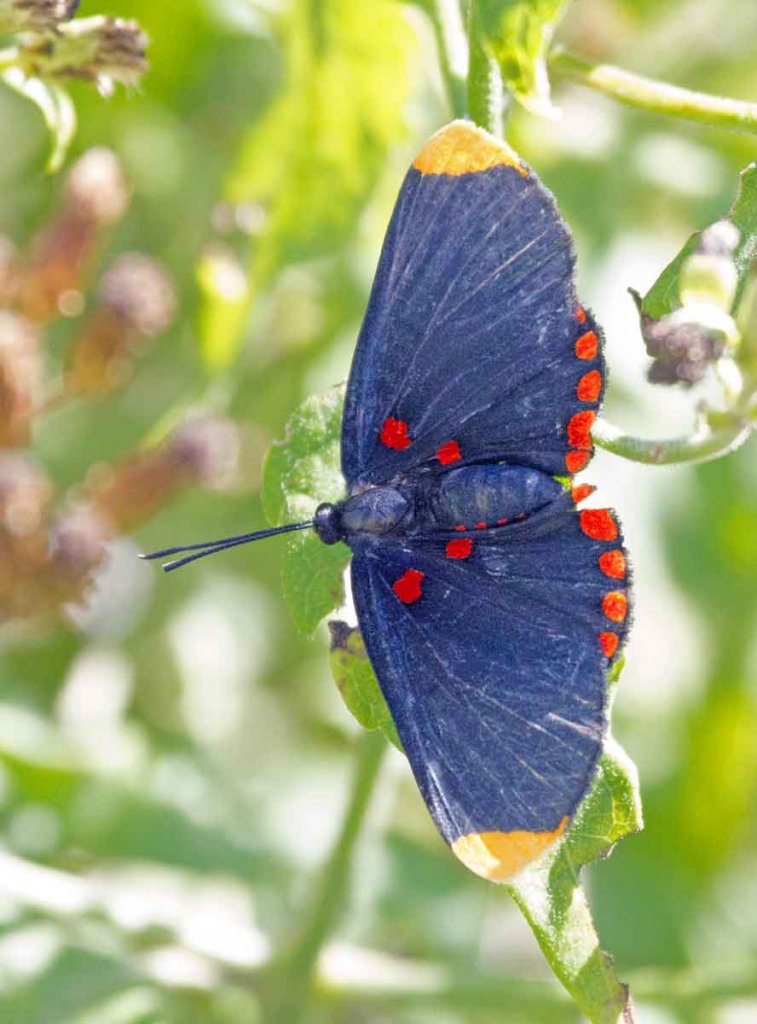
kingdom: Animalia
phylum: Arthropoda
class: Insecta
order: Lepidoptera
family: Lycaenidae
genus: Melanis
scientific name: Melanis pixe
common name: Red-bordered Pixie
